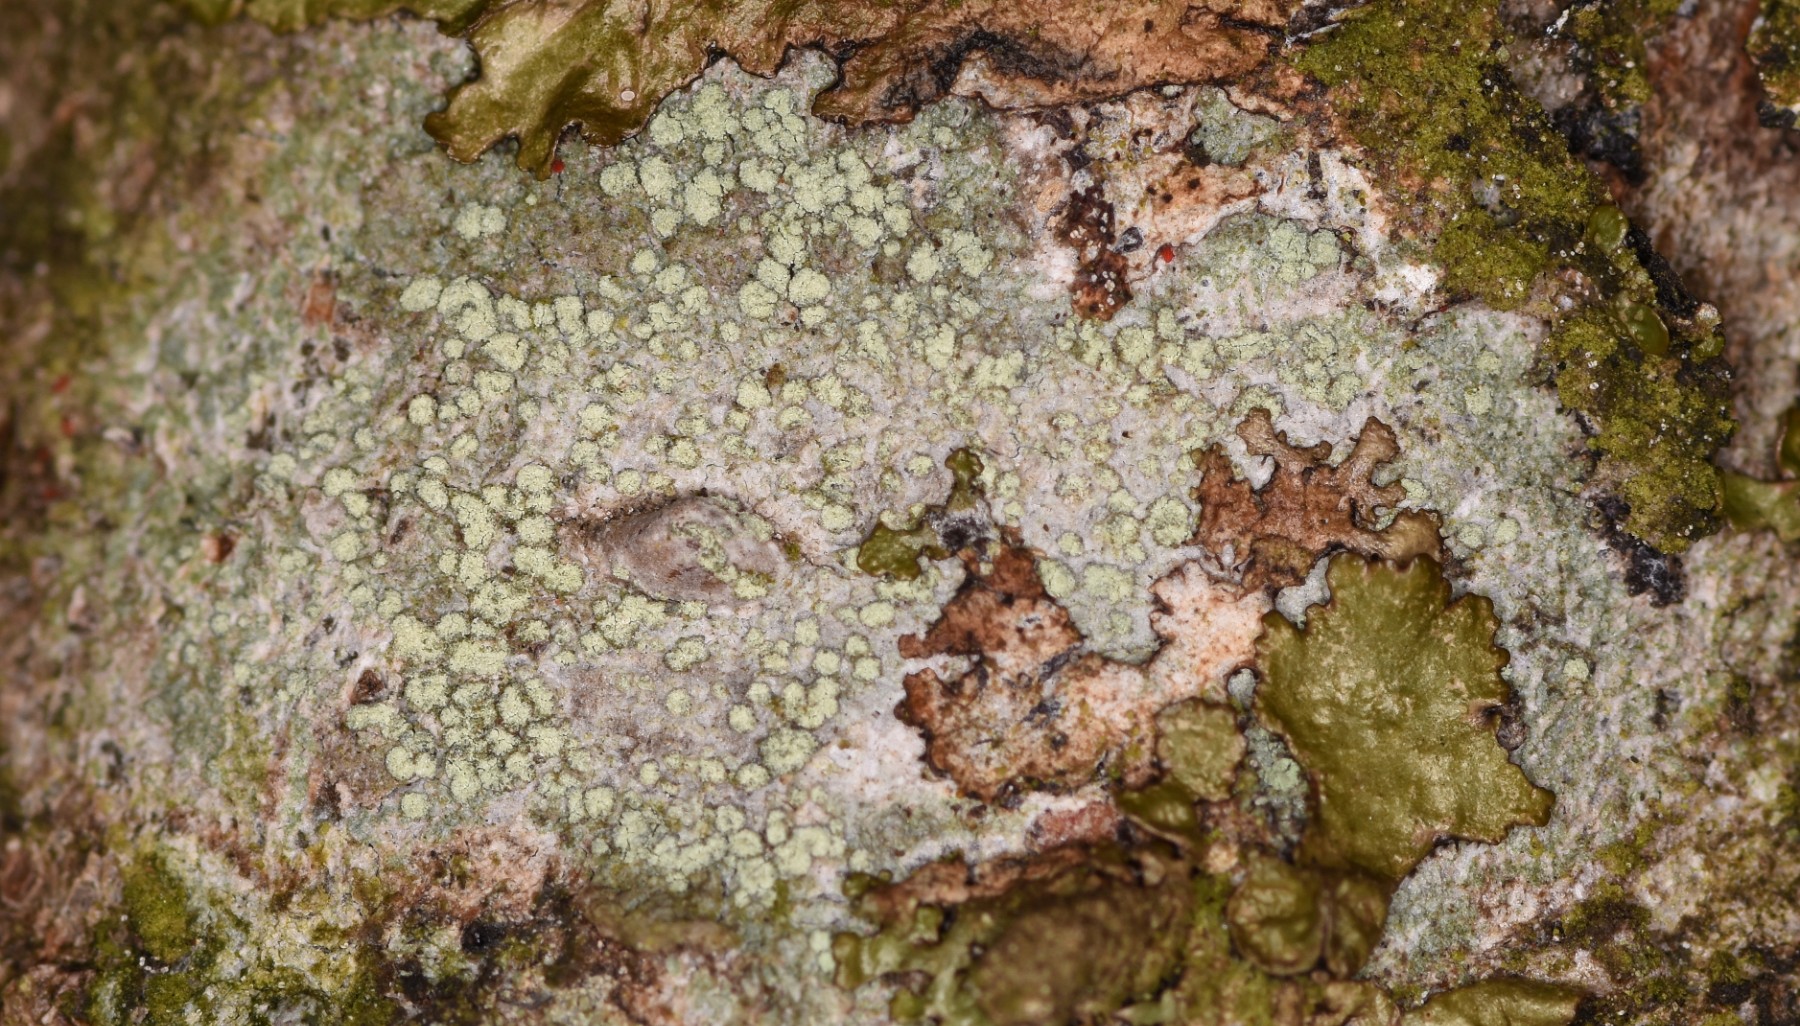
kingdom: Fungi
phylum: Ascomycota
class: Lecanoromycetes
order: Caliciales
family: Caliciaceae
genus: Buellia
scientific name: Buellia griseovirens
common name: grågrøn sortskivelav
